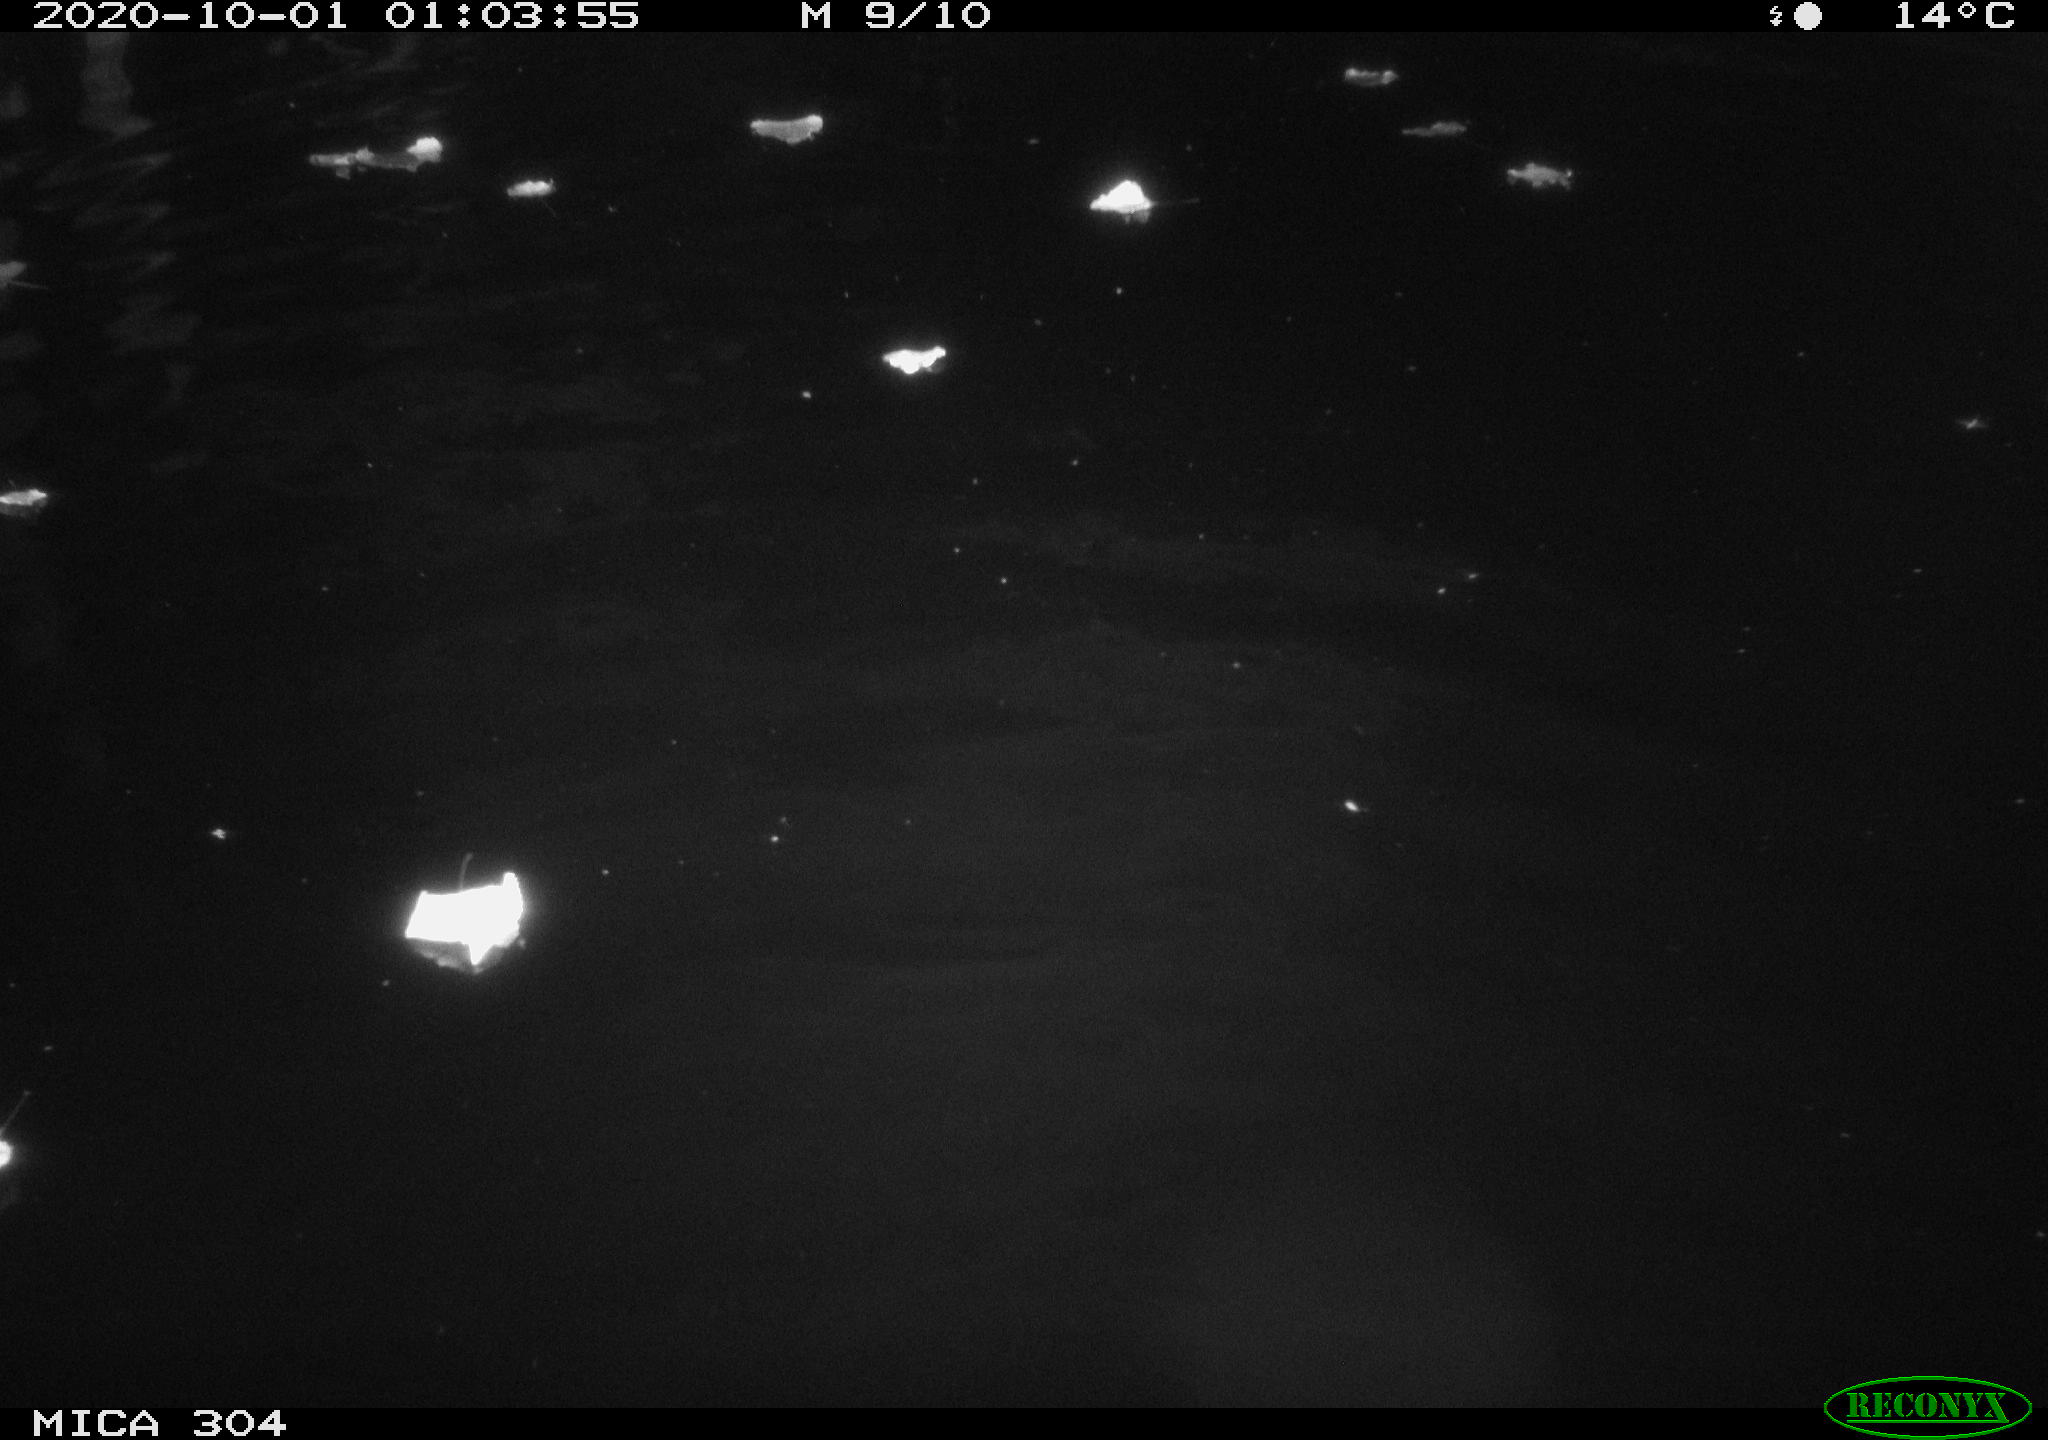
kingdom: Animalia
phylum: Chordata
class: Mammalia
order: Rodentia
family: Cricetidae
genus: Ondatra
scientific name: Ondatra zibethicus
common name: Muskrat
